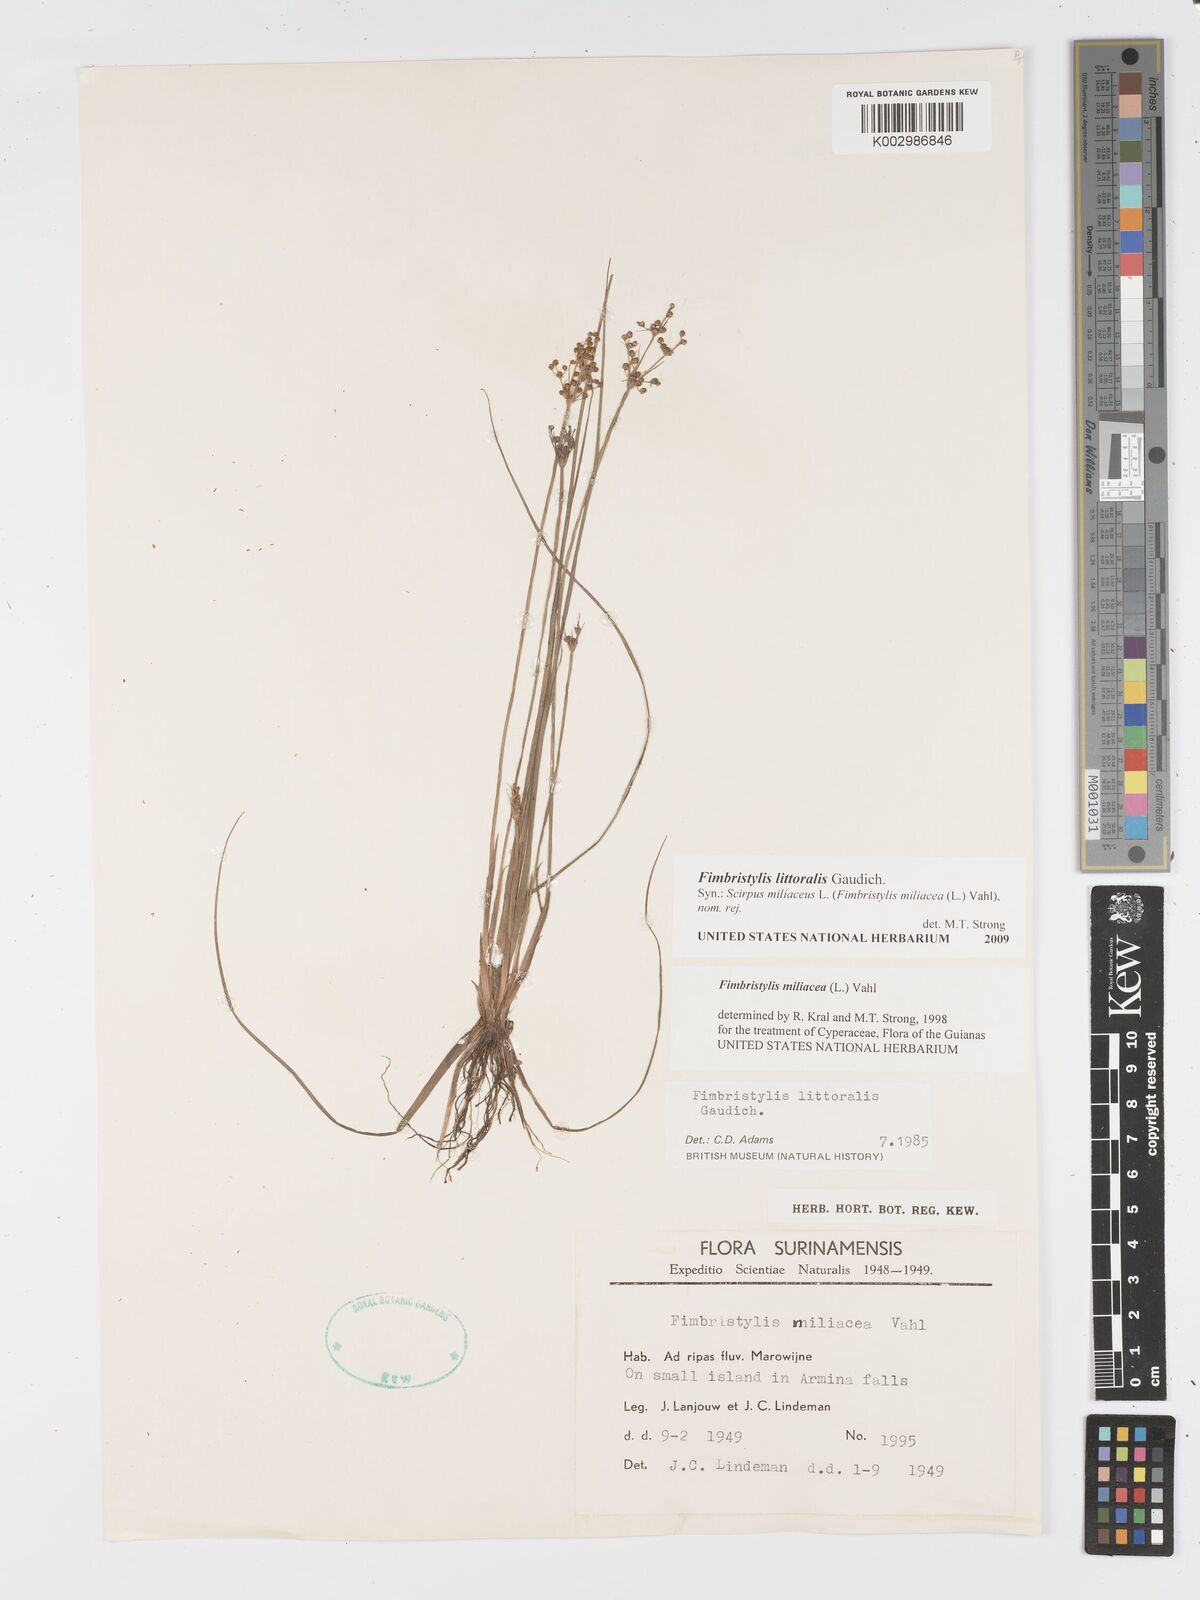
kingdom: Plantae
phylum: Tracheophyta
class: Liliopsida
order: Poales
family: Cyperaceae
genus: Fimbristylis
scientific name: Fimbristylis littoralis
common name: Fimbry
